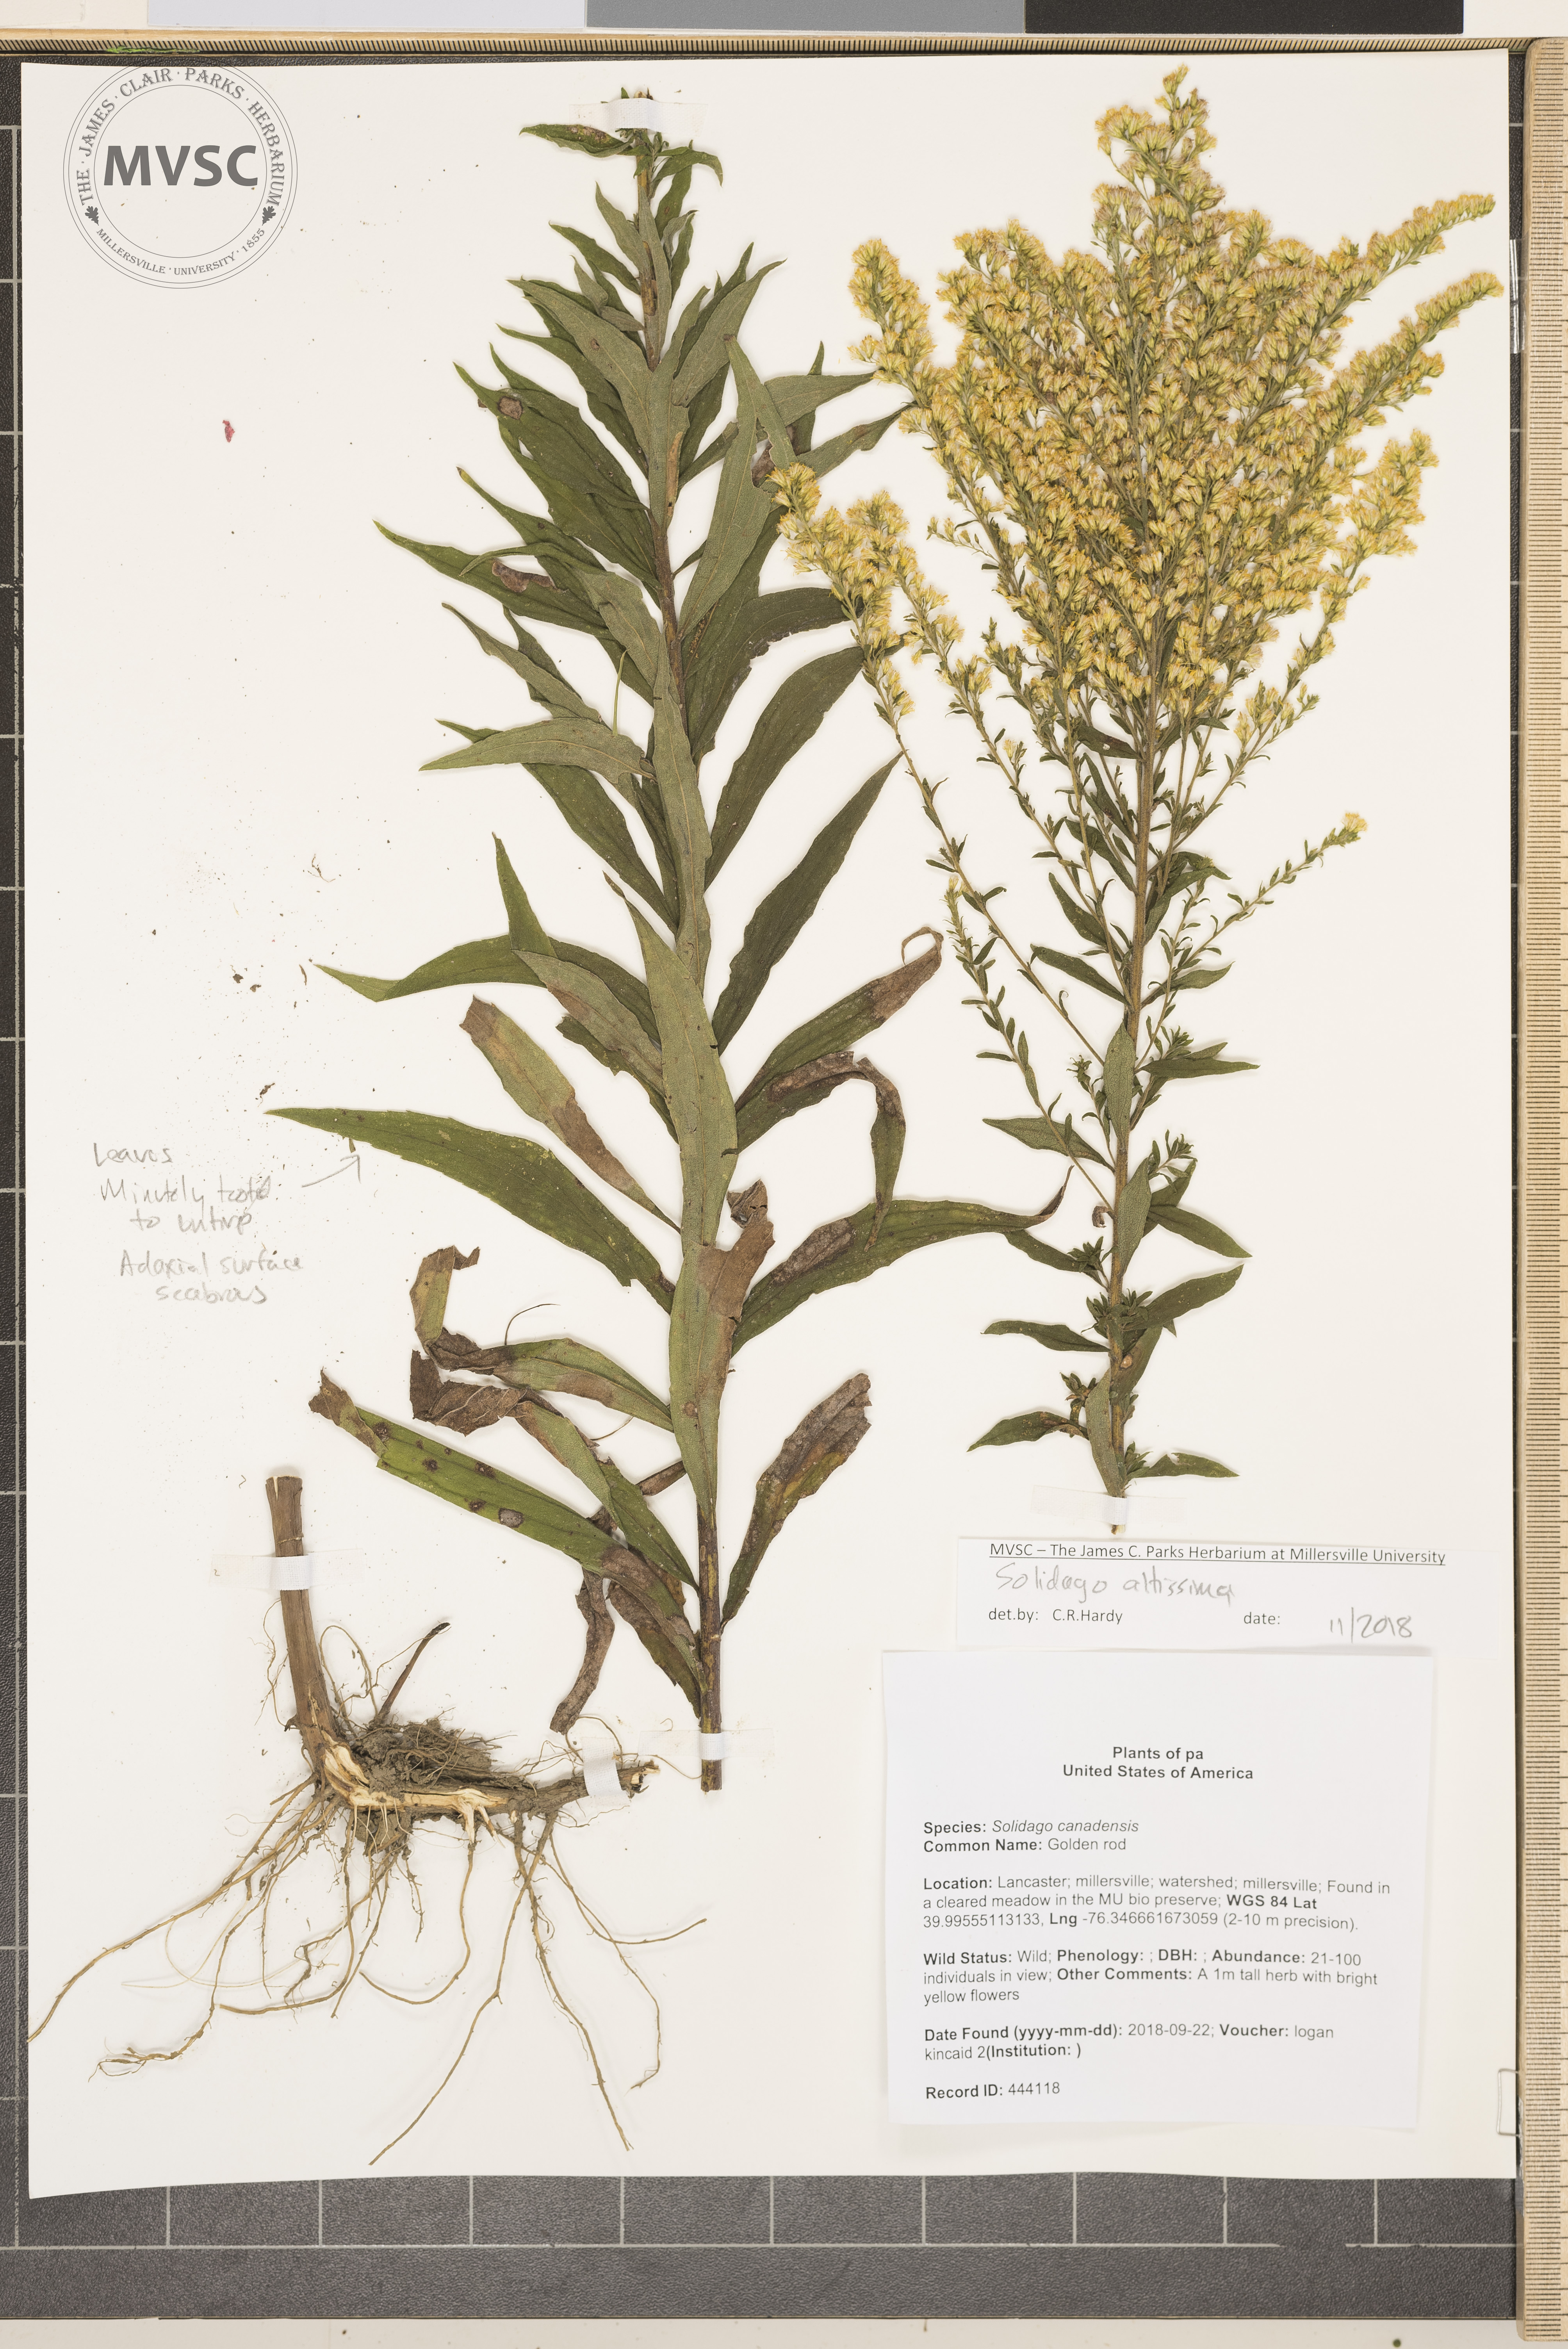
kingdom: Plantae
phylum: Tracheophyta
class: Magnoliopsida
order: Asterales
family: Asteraceae
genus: Solidago
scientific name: Solidago altissima
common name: Goldenrod
